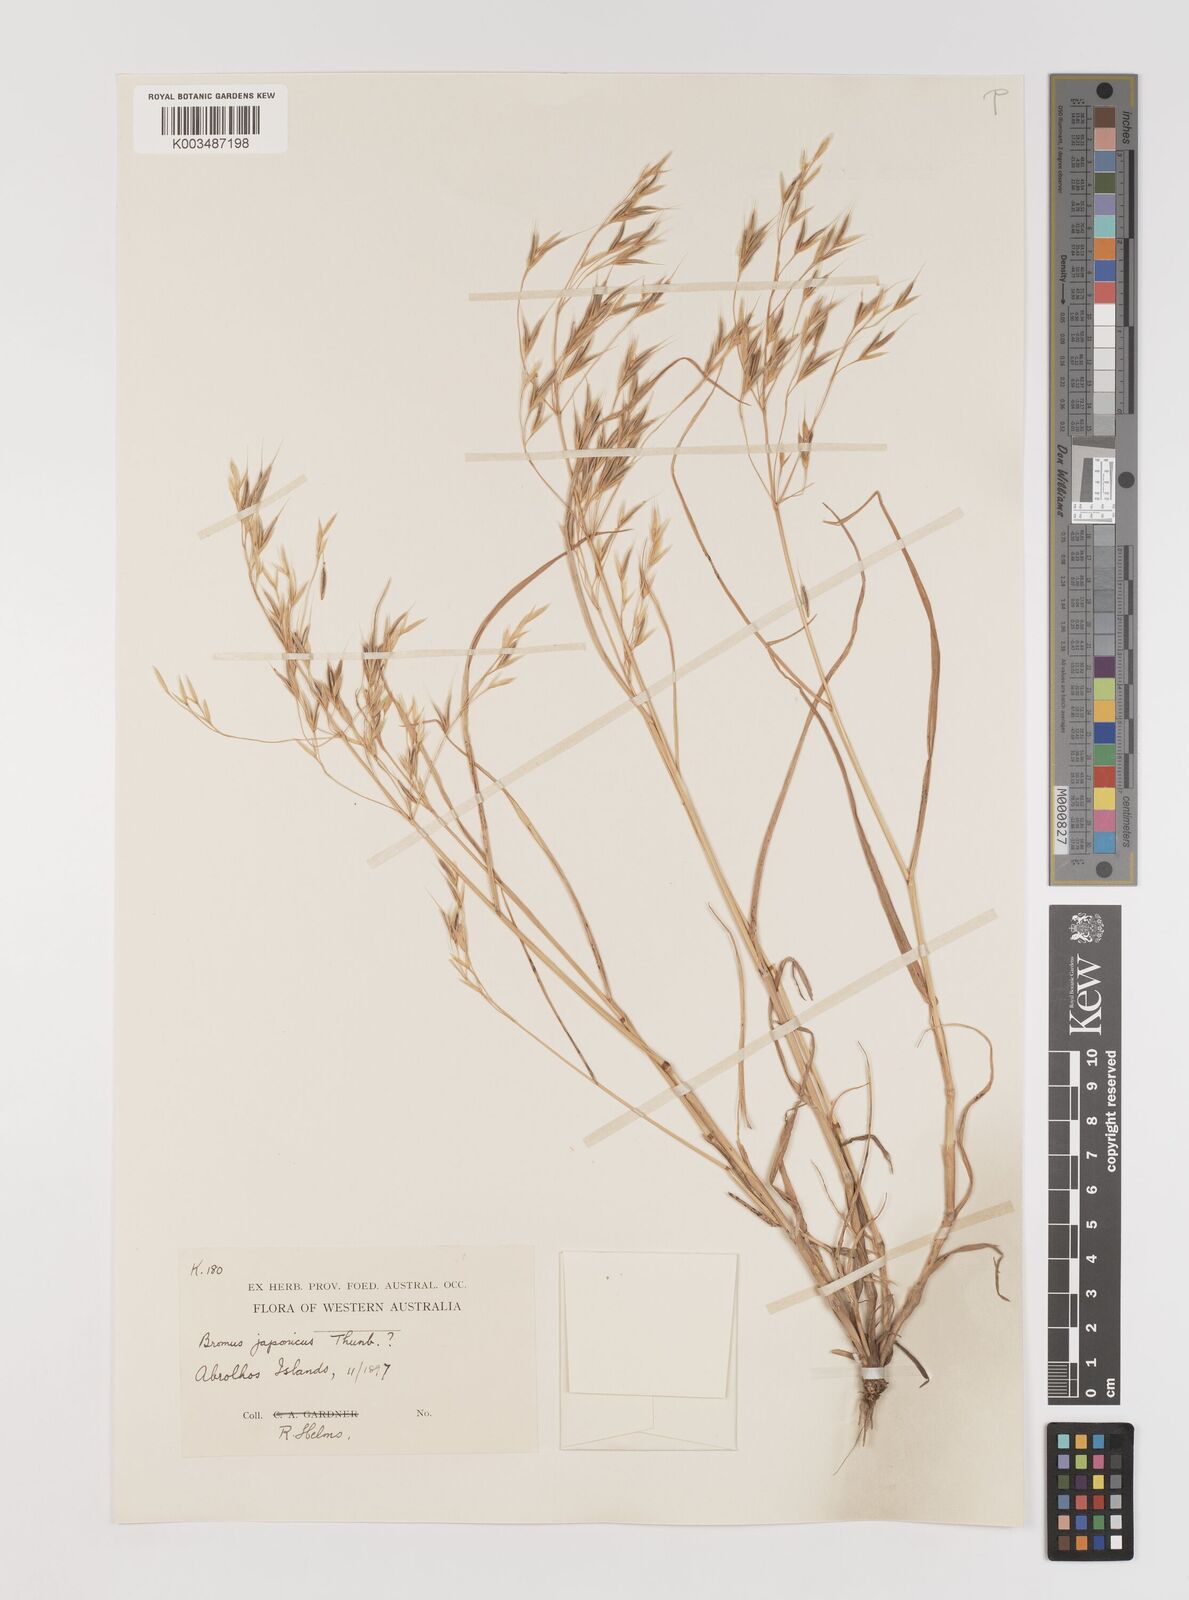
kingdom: Plantae
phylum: Tracheophyta
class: Liliopsida
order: Poales
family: Poaceae
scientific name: Poaceae
